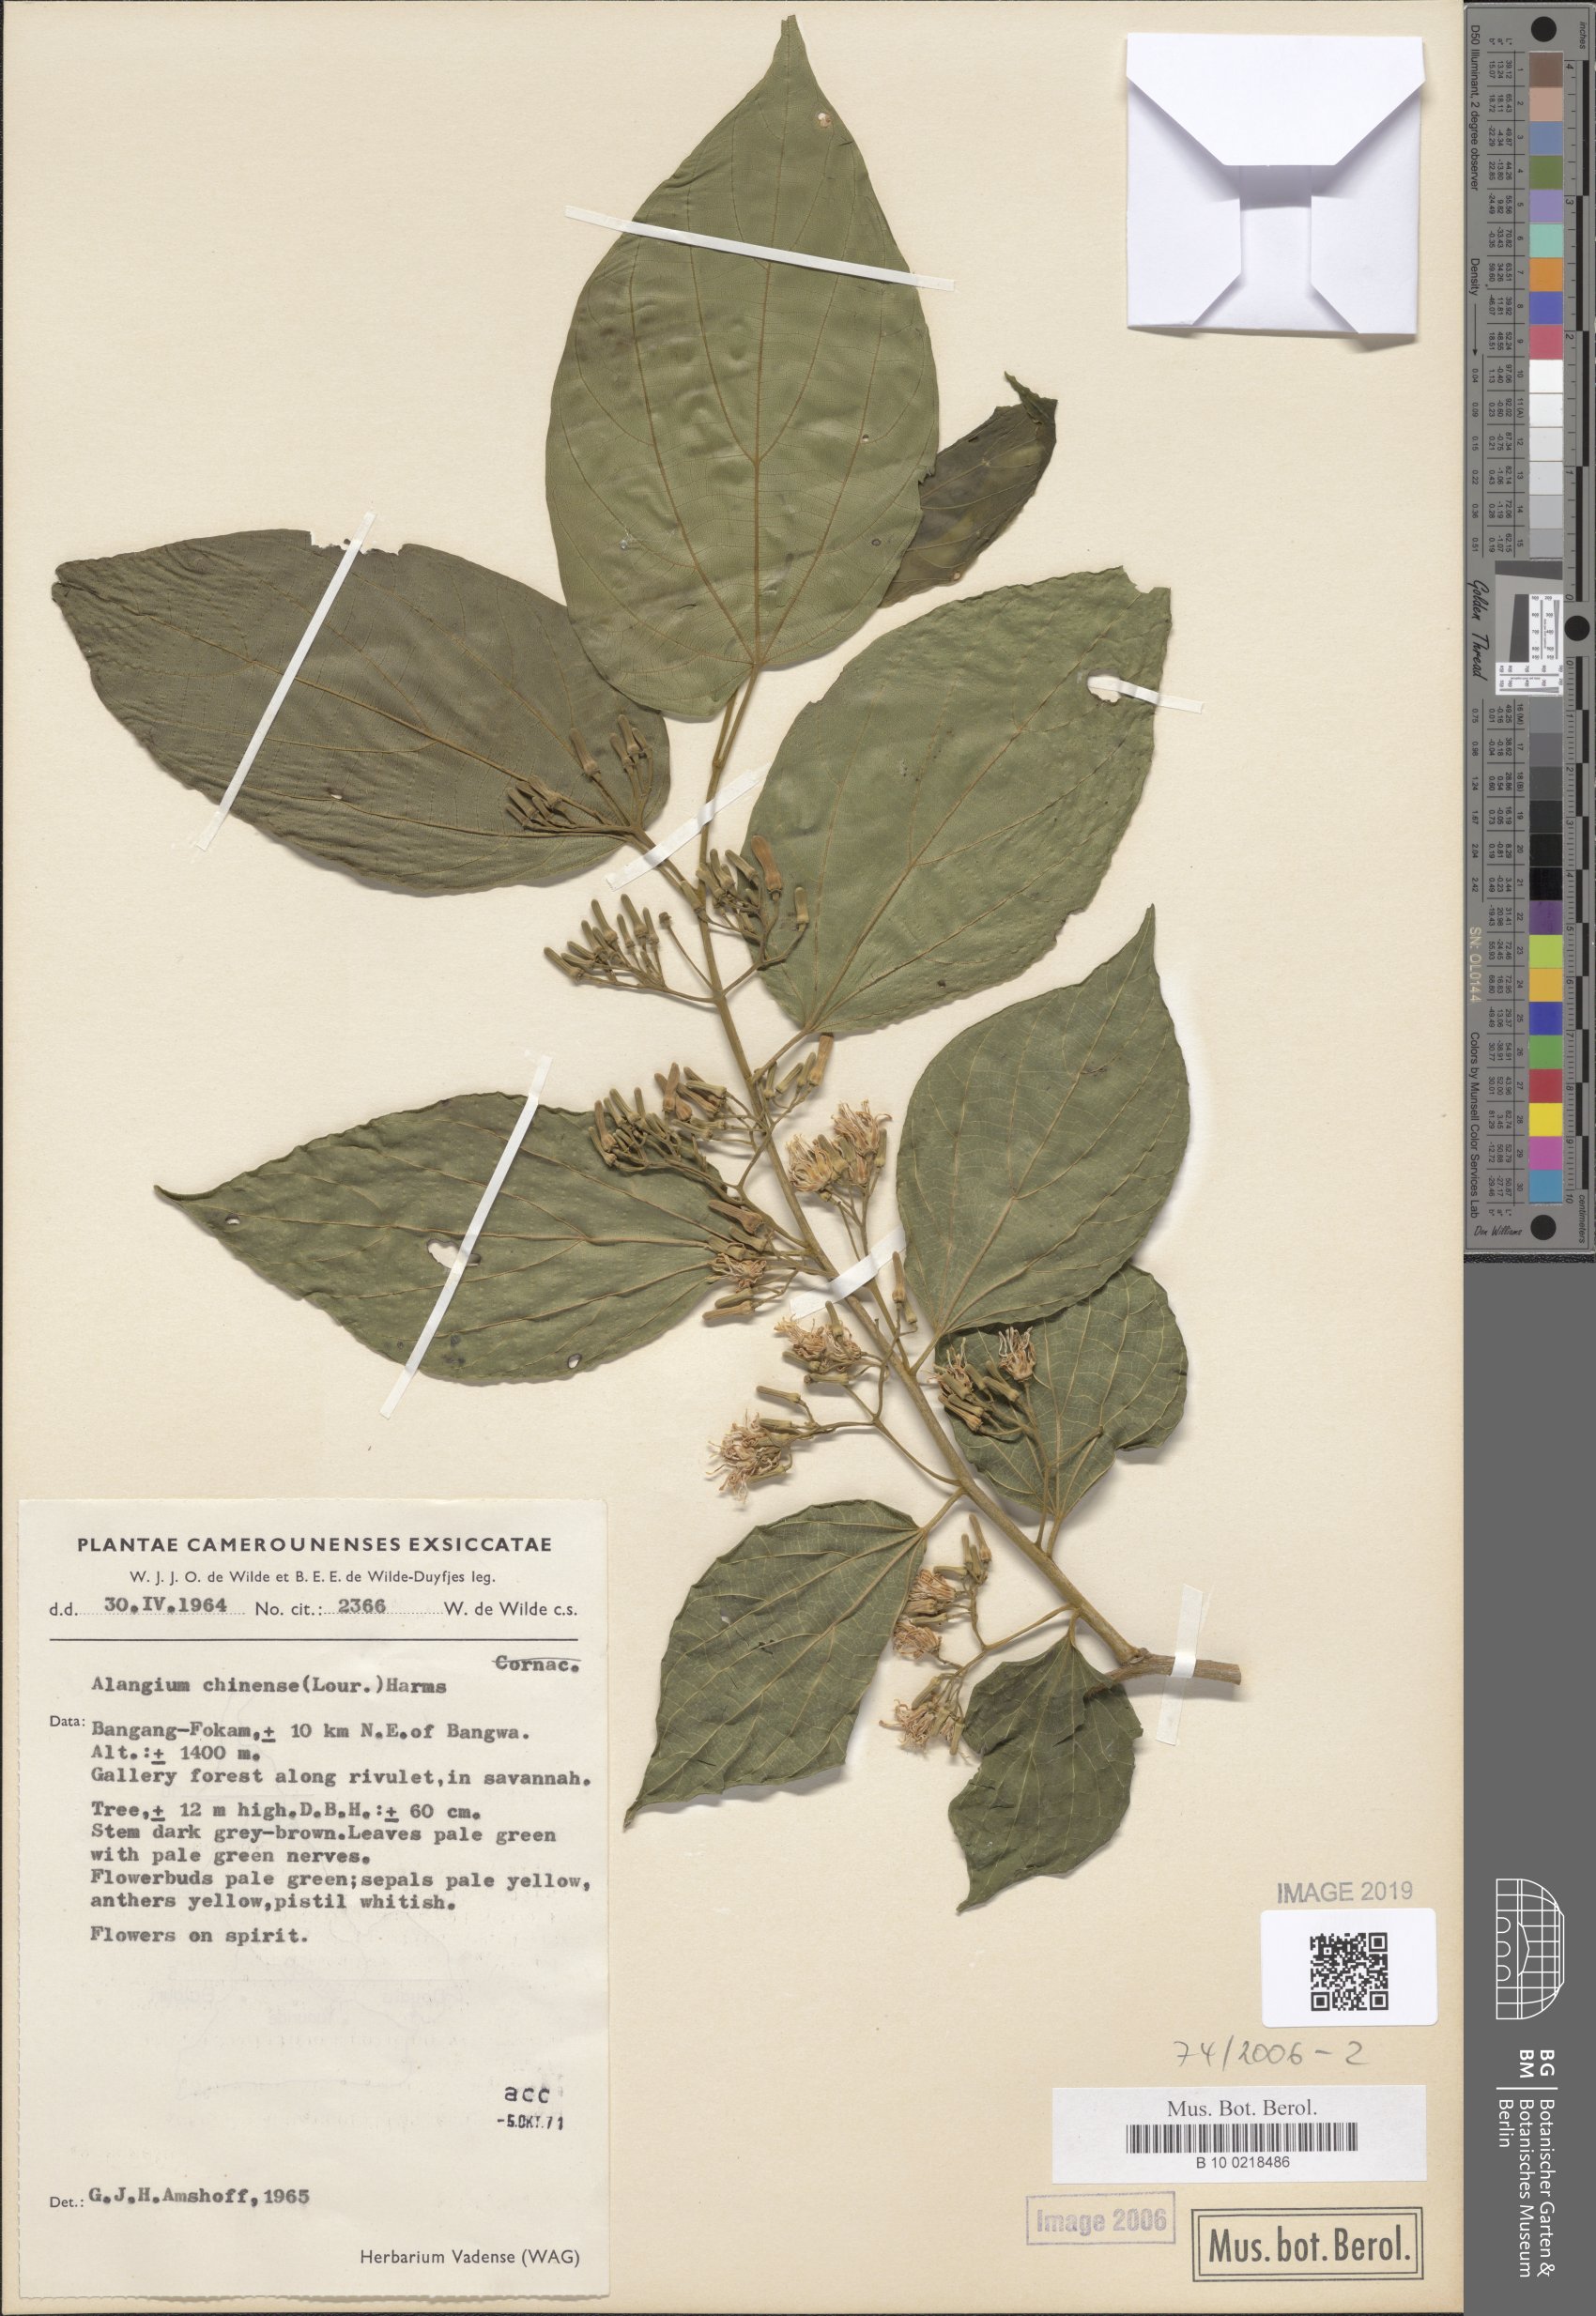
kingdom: Plantae
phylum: Tracheophyta
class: Magnoliopsida
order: Cornales
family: Cornaceae
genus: Alangium
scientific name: Alangium chinense
